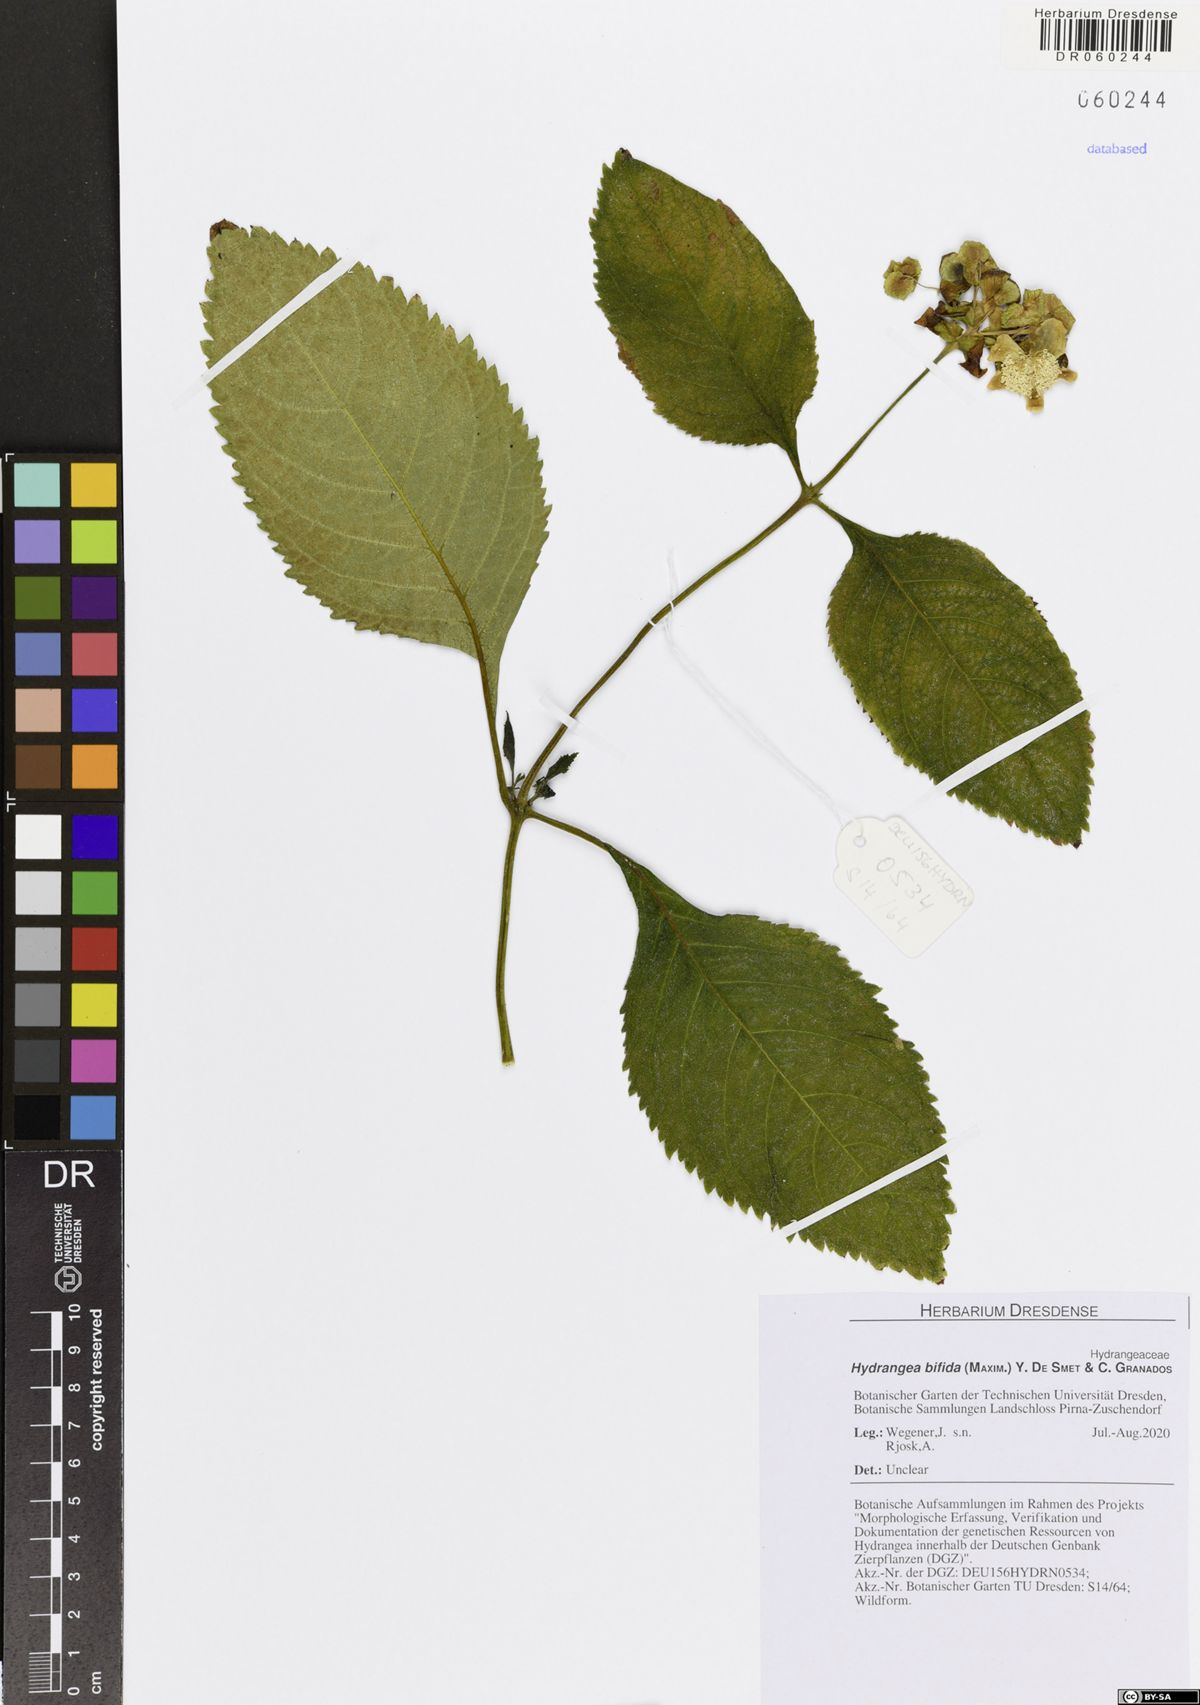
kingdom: Plantae
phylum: Tracheophyta
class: Magnoliopsida
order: Cornales
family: Hydrangeaceae
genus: Hydrangea
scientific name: Hydrangea bifida
